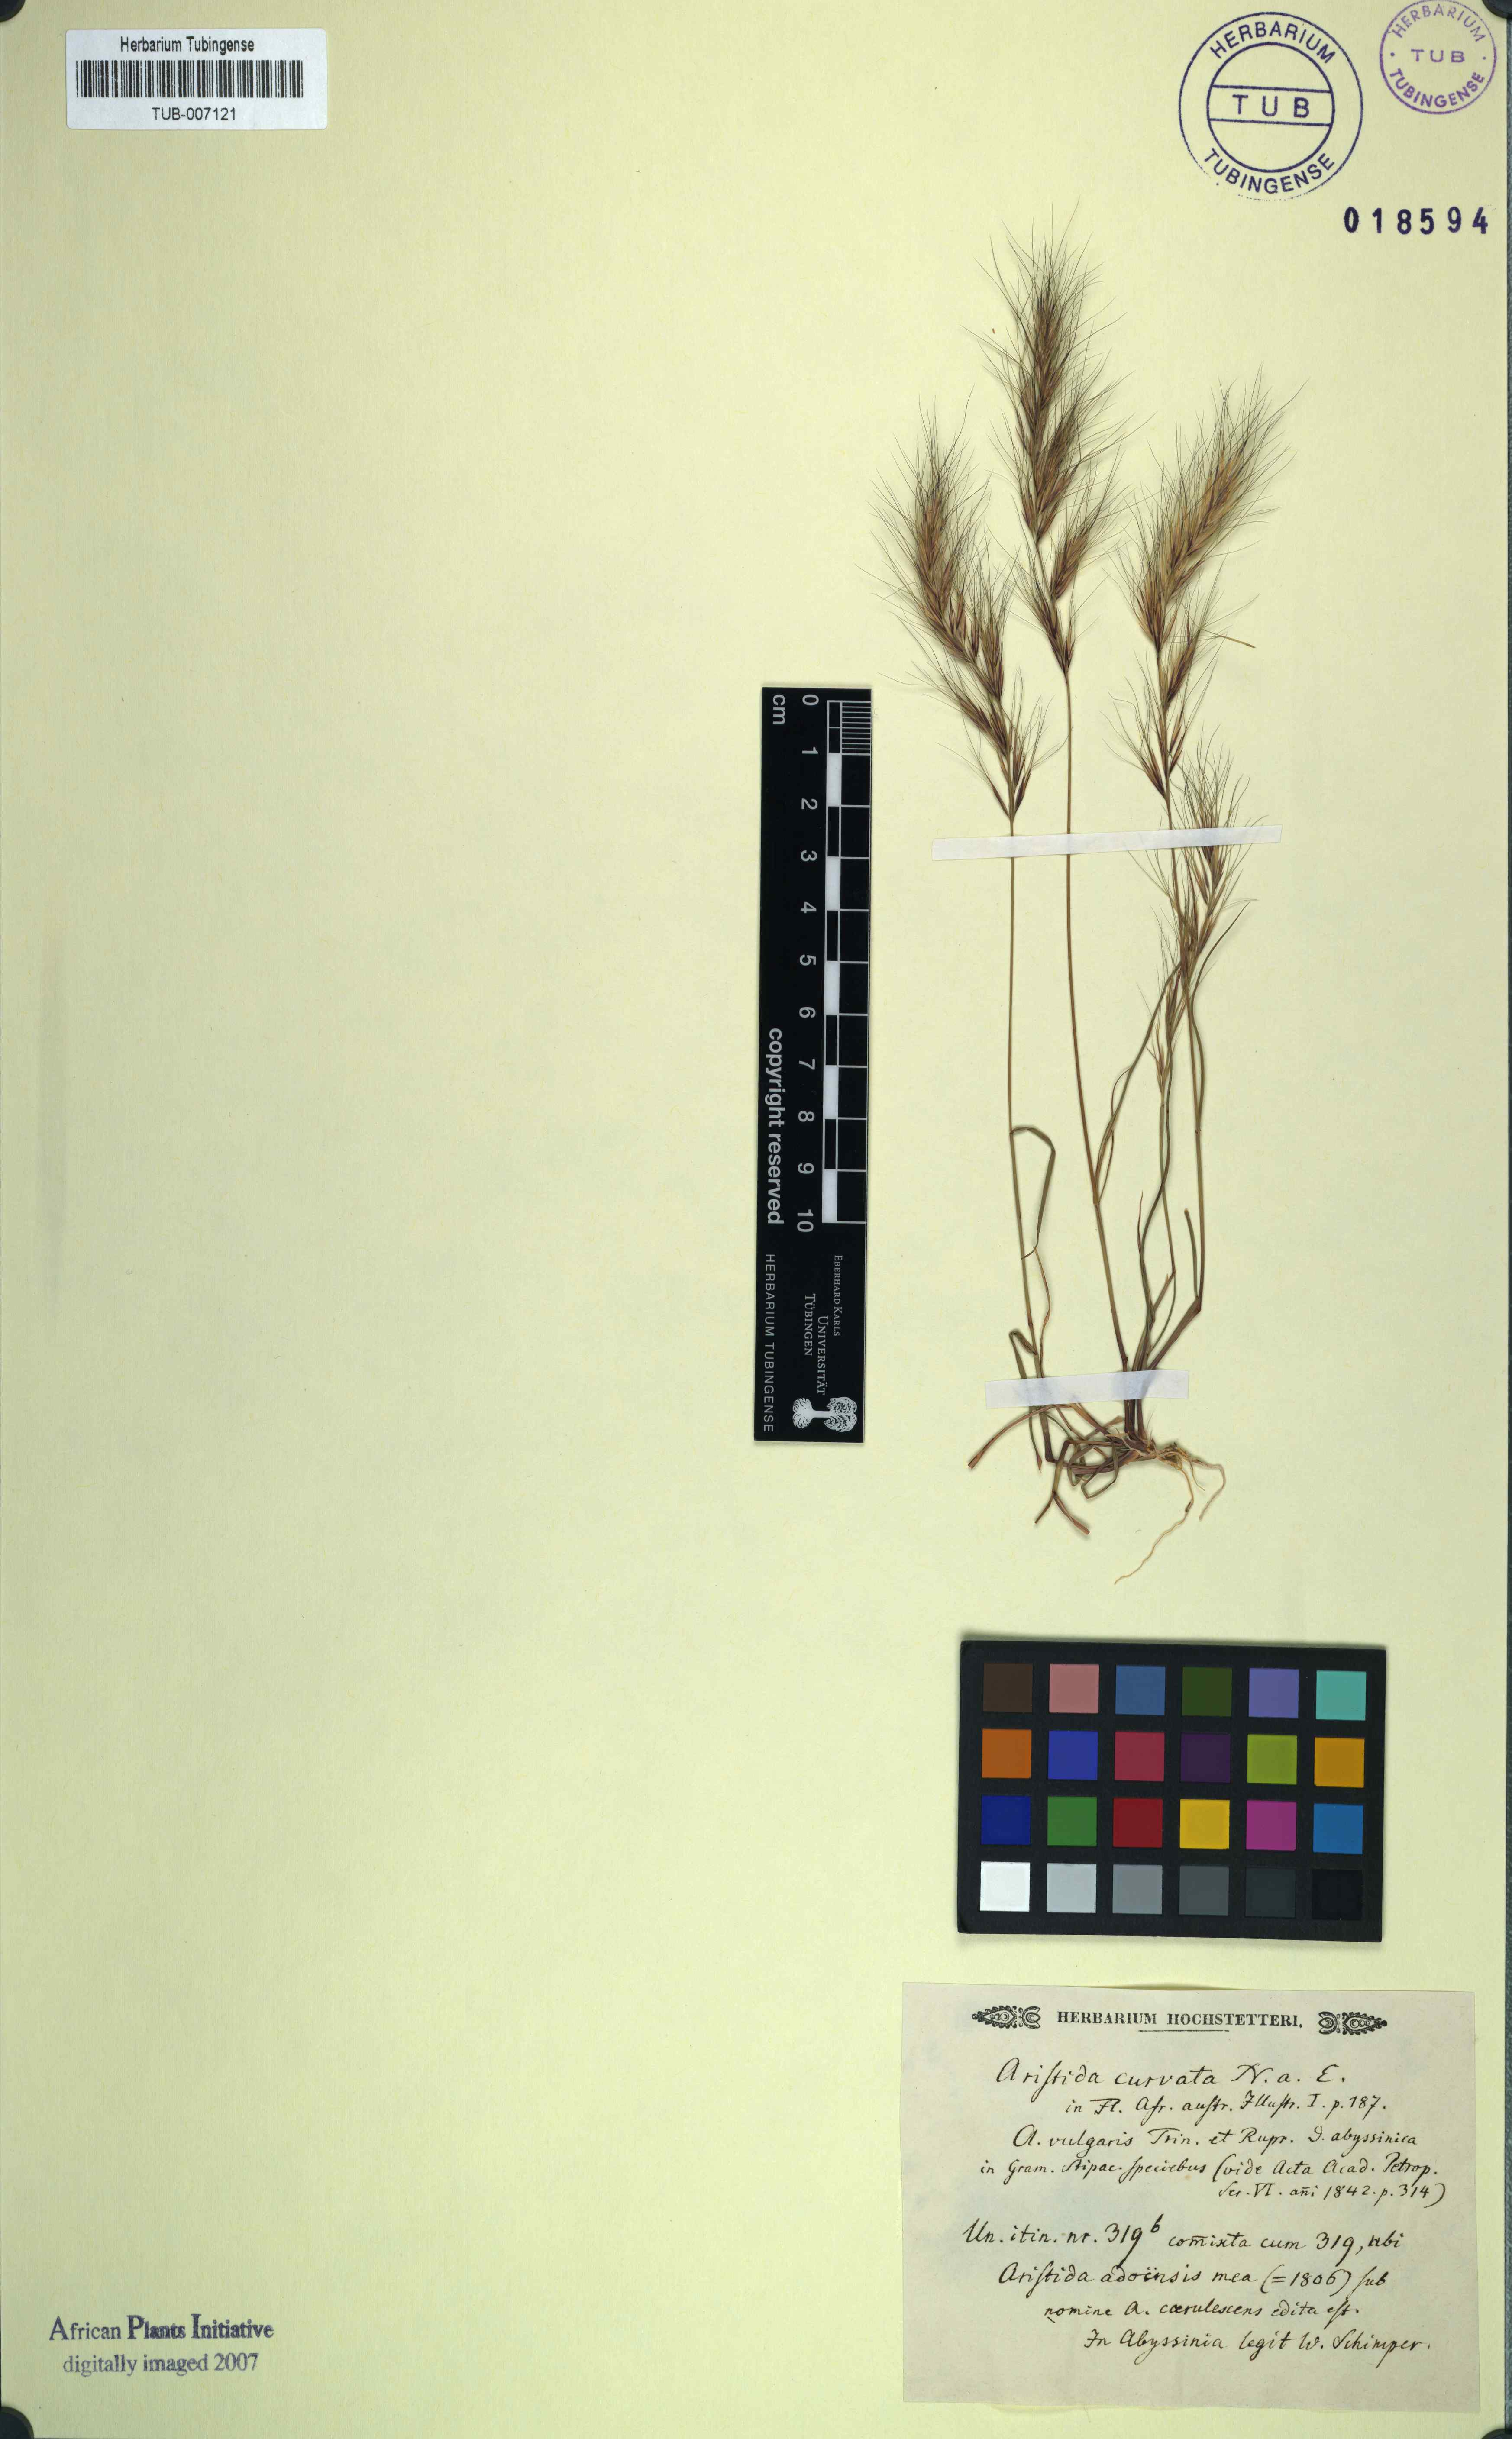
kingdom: Plantae
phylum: Tracheophyta
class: Liliopsida
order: Poales
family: Poaceae
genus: Aristida
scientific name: Aristida adscensionis
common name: Sixweeks threeawn
